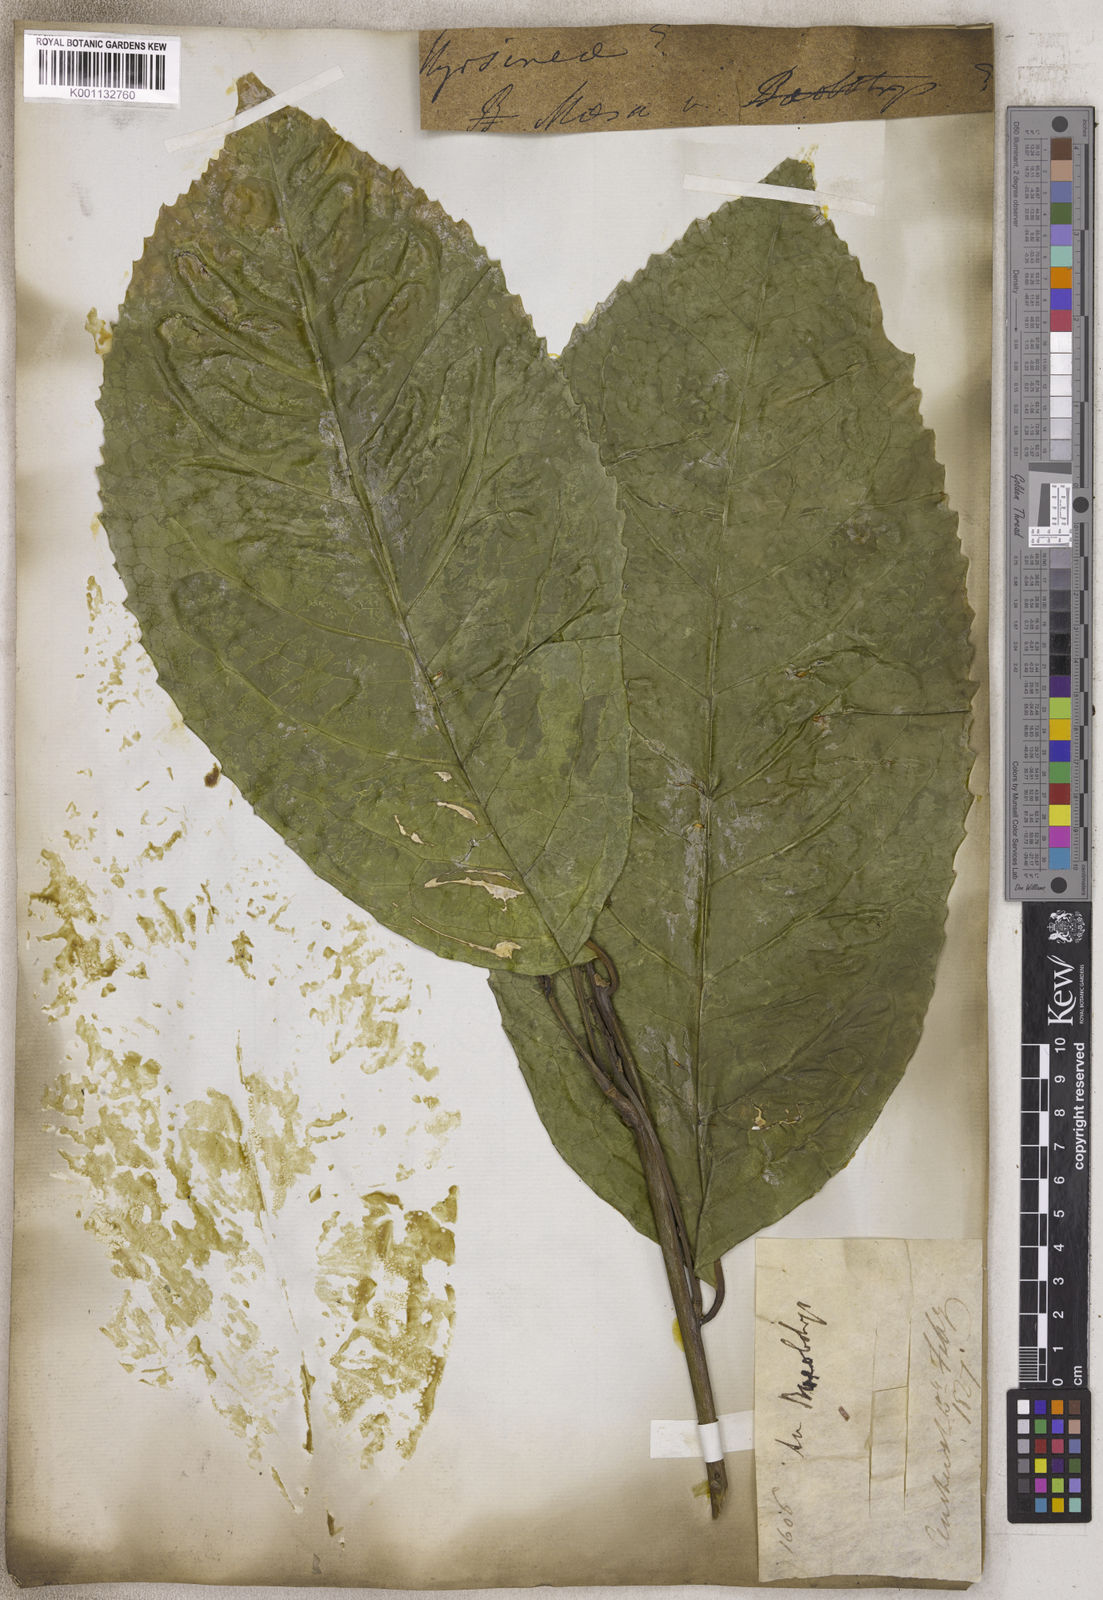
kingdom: Plantae
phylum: Tracheophyta
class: Magnoliopsida
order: Ericales
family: Primulaceae
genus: Maesa
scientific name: Maesa
